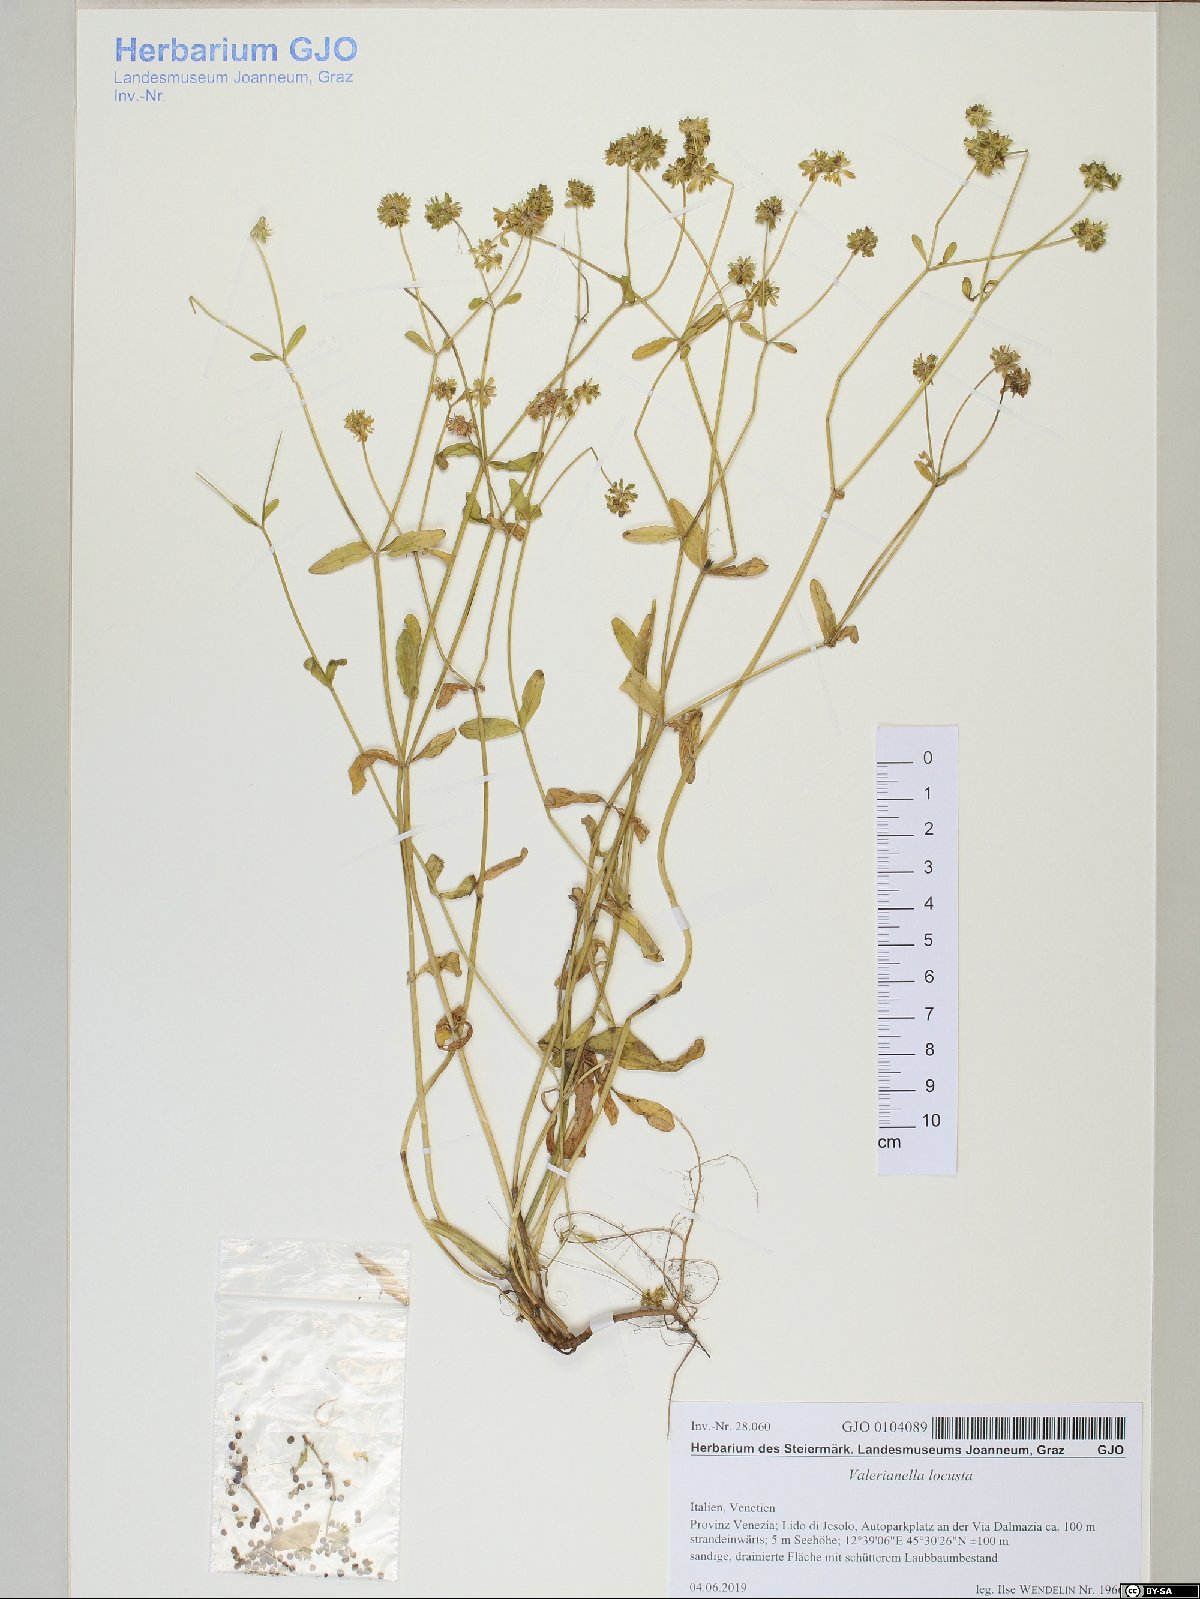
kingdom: Plantae
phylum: Tracheophyta
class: Magnoliopsida
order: Dipsacales
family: Caprifoliaceae
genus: Valerianella
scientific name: Valerianella locusta
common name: Common cornsalad
